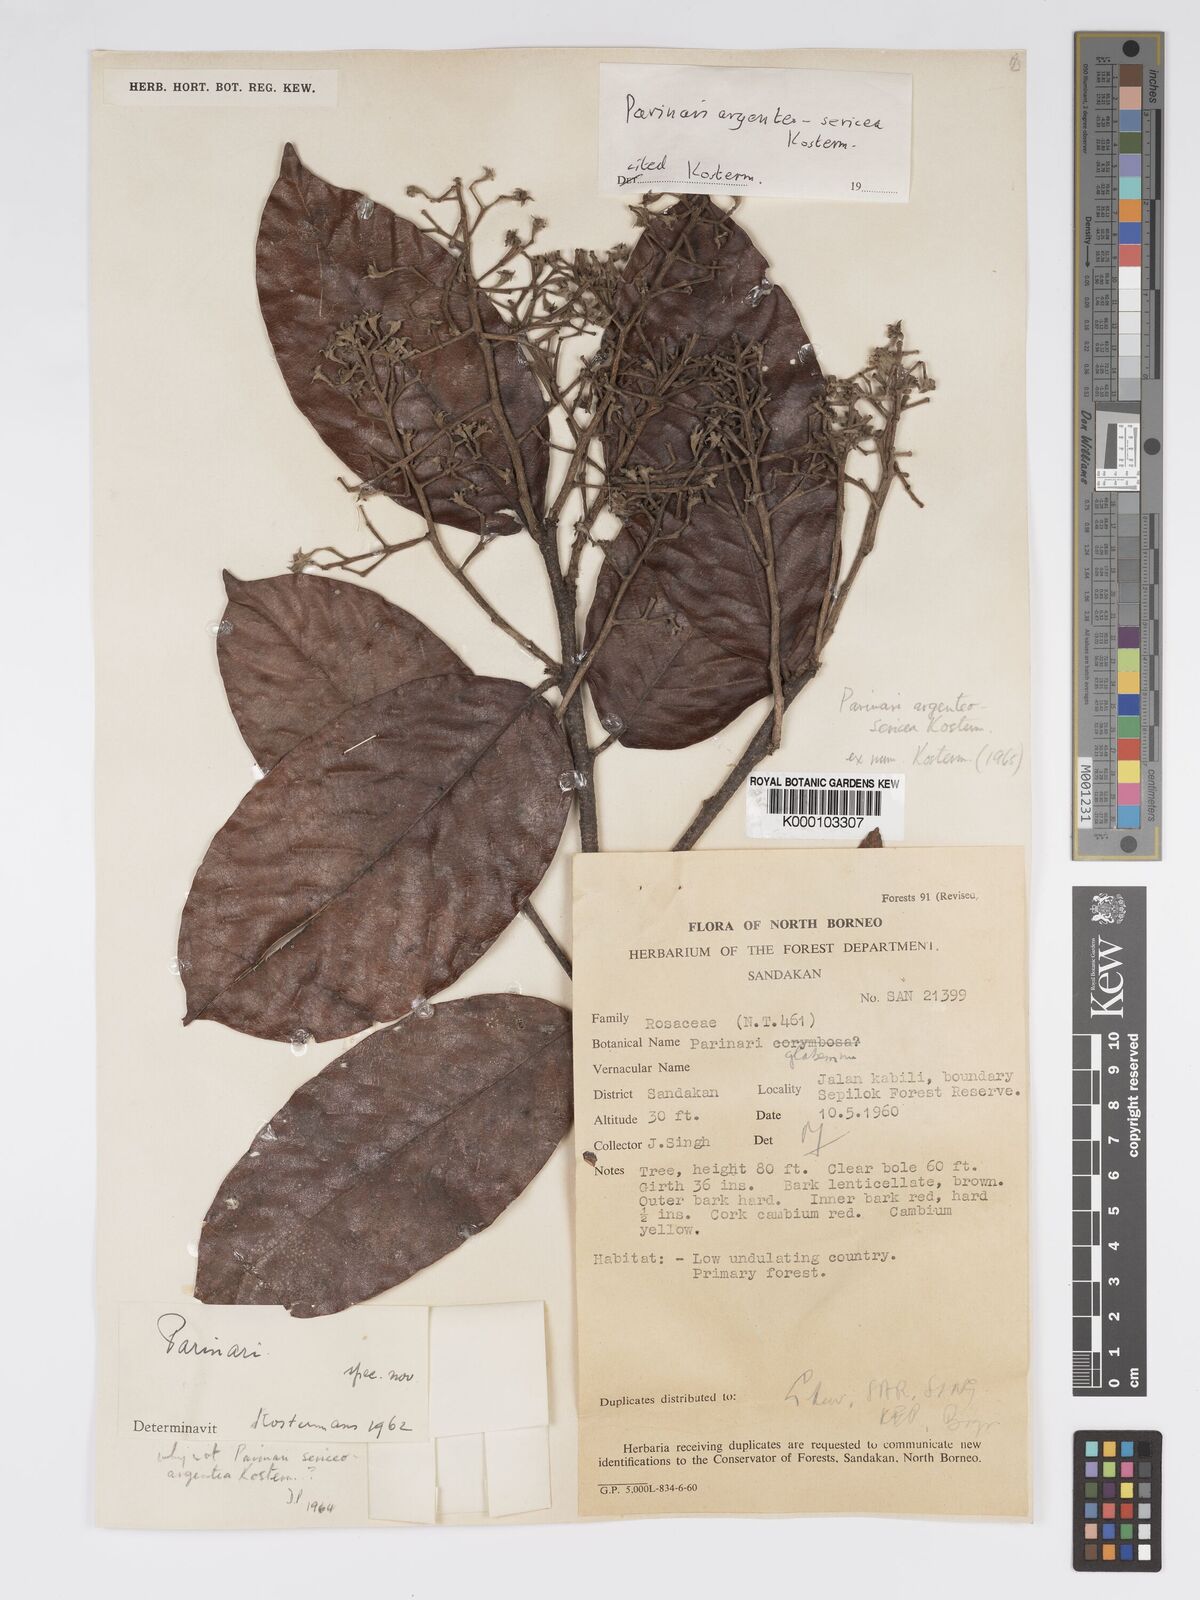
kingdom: Plantae
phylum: Tracheophyta
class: Magnoliopsida
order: Malpighiales
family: Chrysobalanaceae
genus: Parinari
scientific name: Parinari argenteosericea
